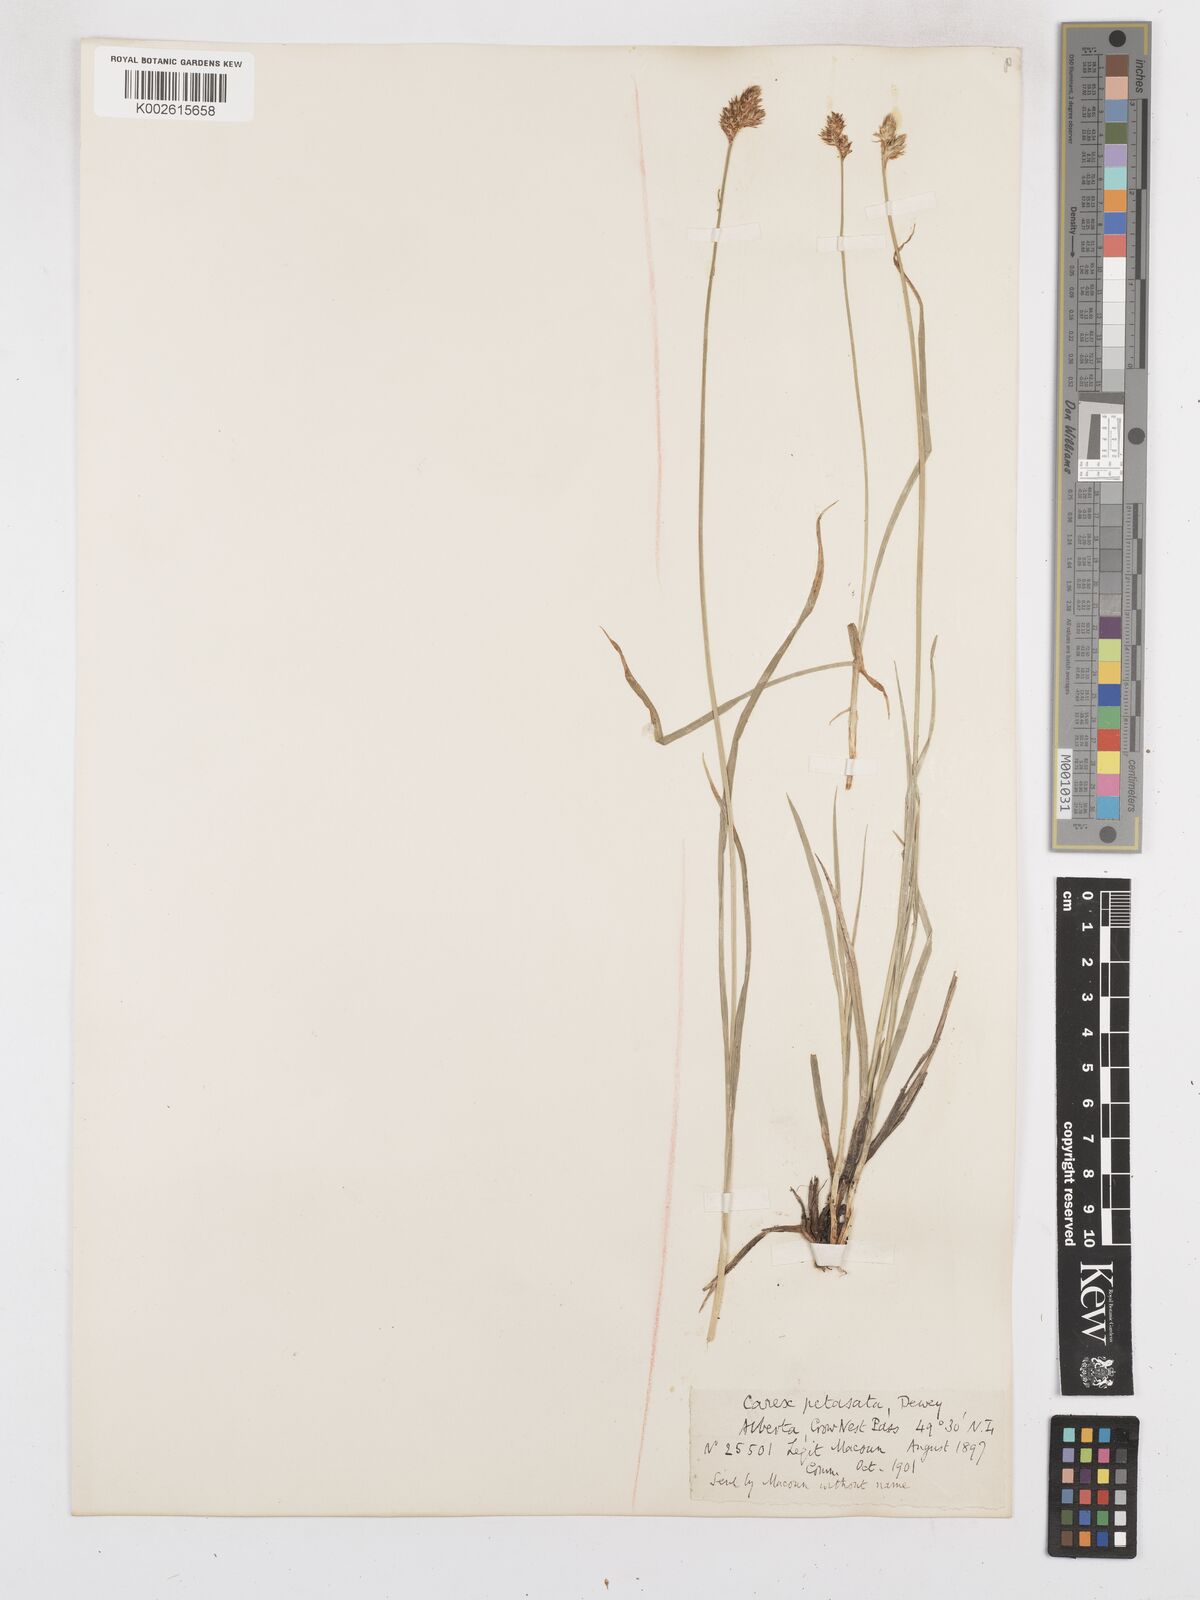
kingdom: Plantae
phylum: Tracheophyta
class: Liliopsida
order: Poales
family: Cyperaceae
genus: Carex
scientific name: Carex preslii
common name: Presl's sedge
